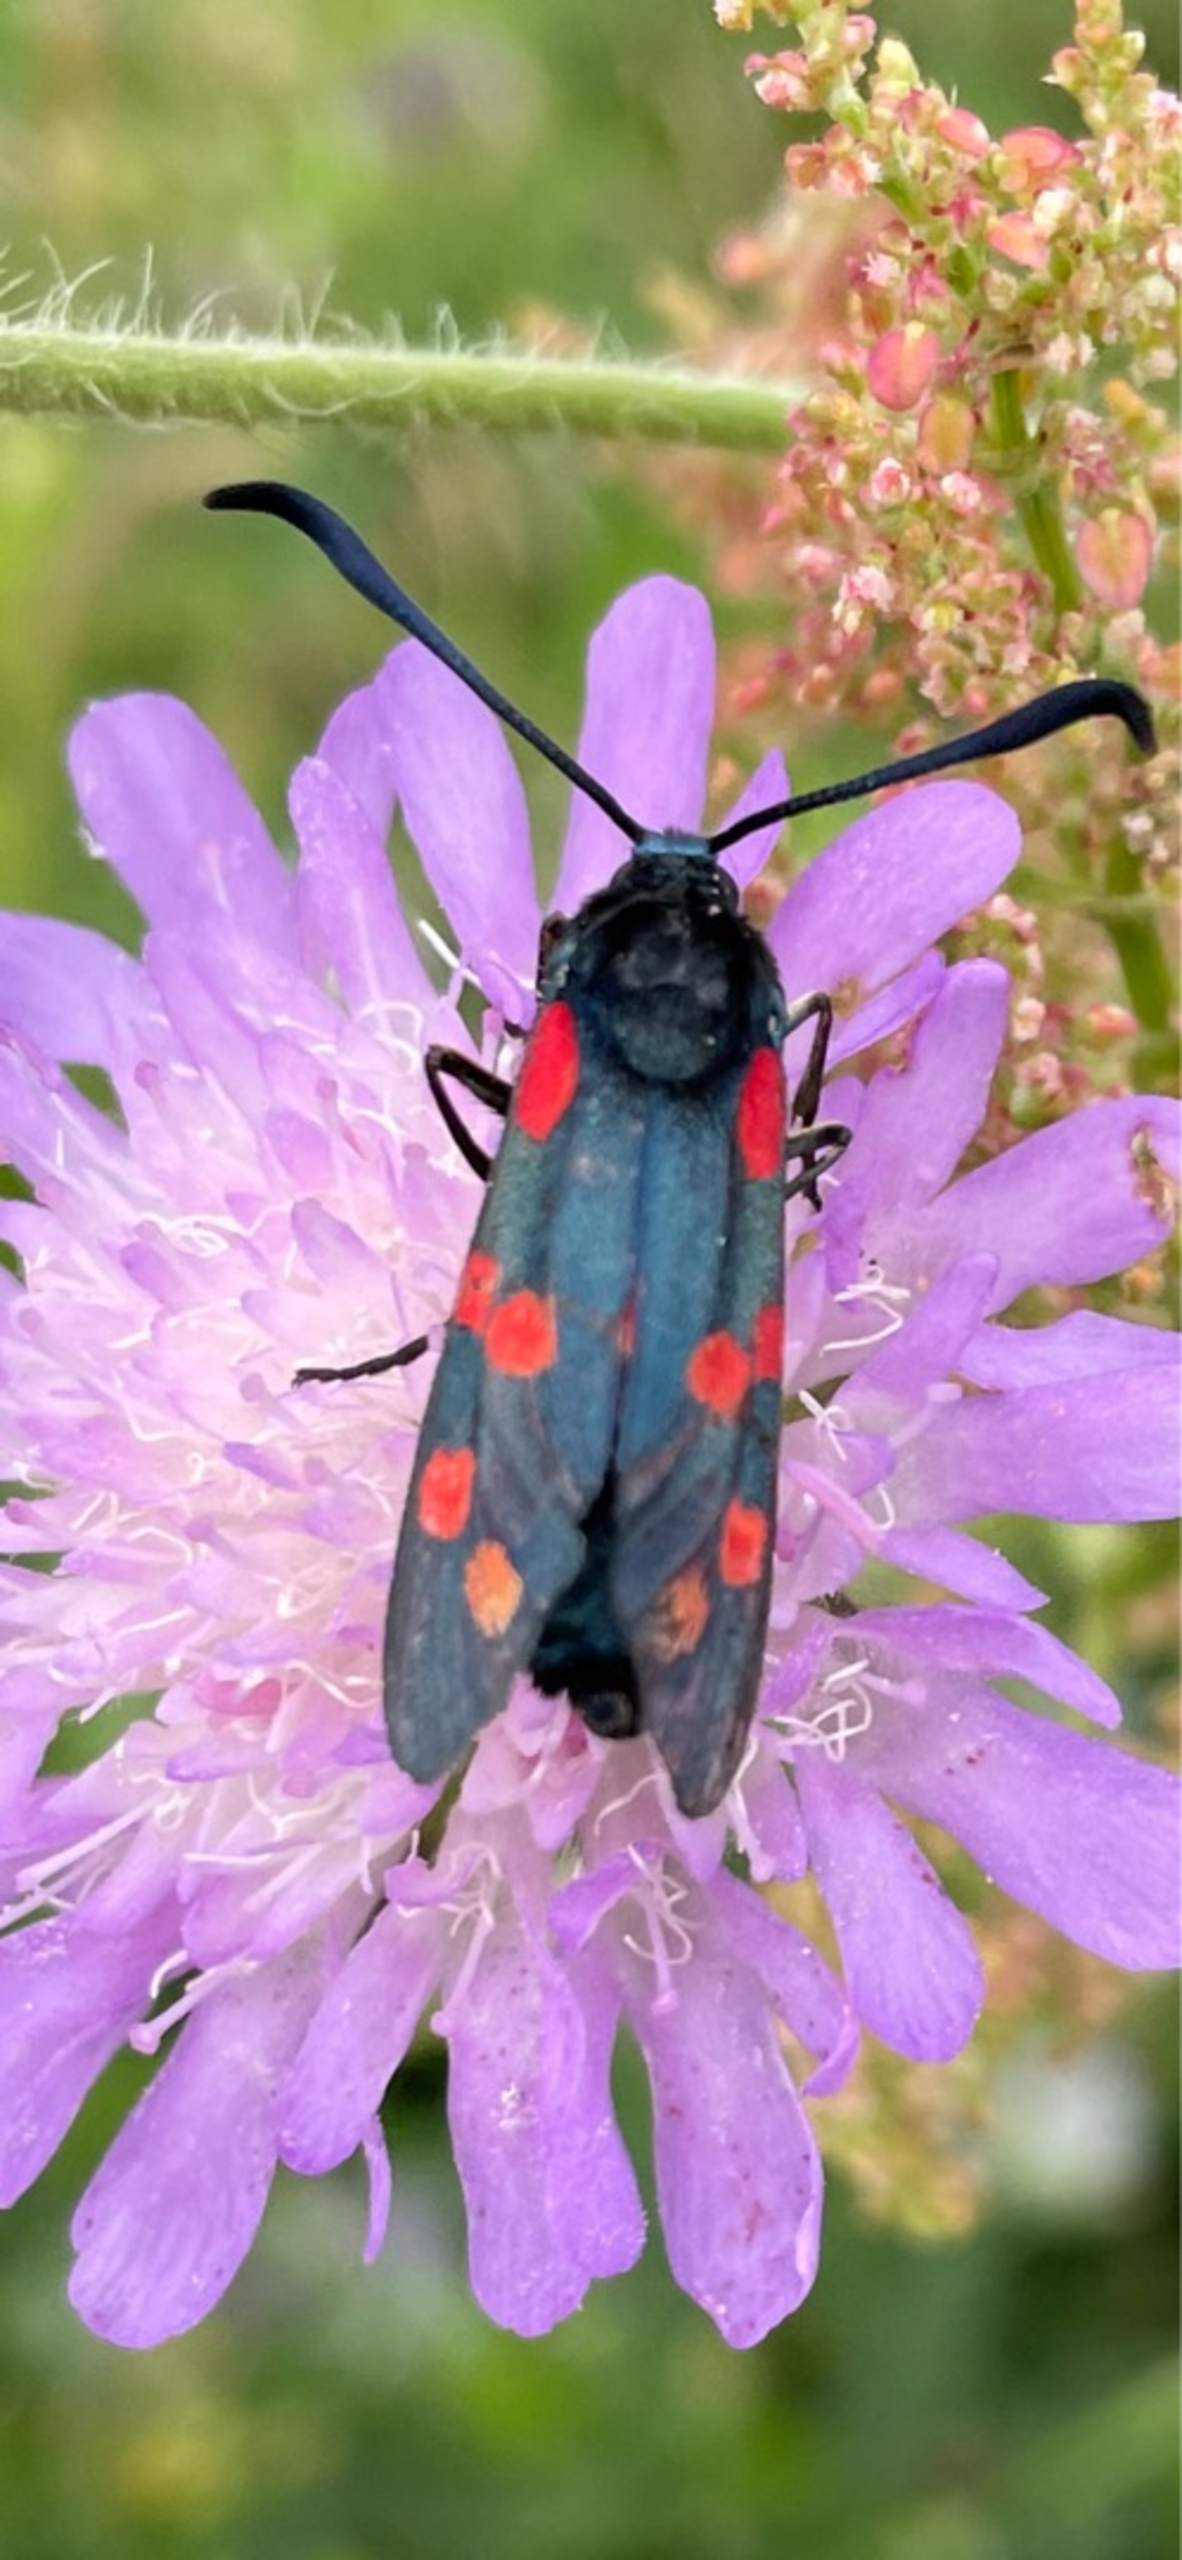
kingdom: Animalia
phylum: Arthropoda
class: Insecta
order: Lepidoptera
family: Zygaenidae
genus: Zygaena
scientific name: Zygaena filipendulae
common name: Seksplettet køllesværmer
